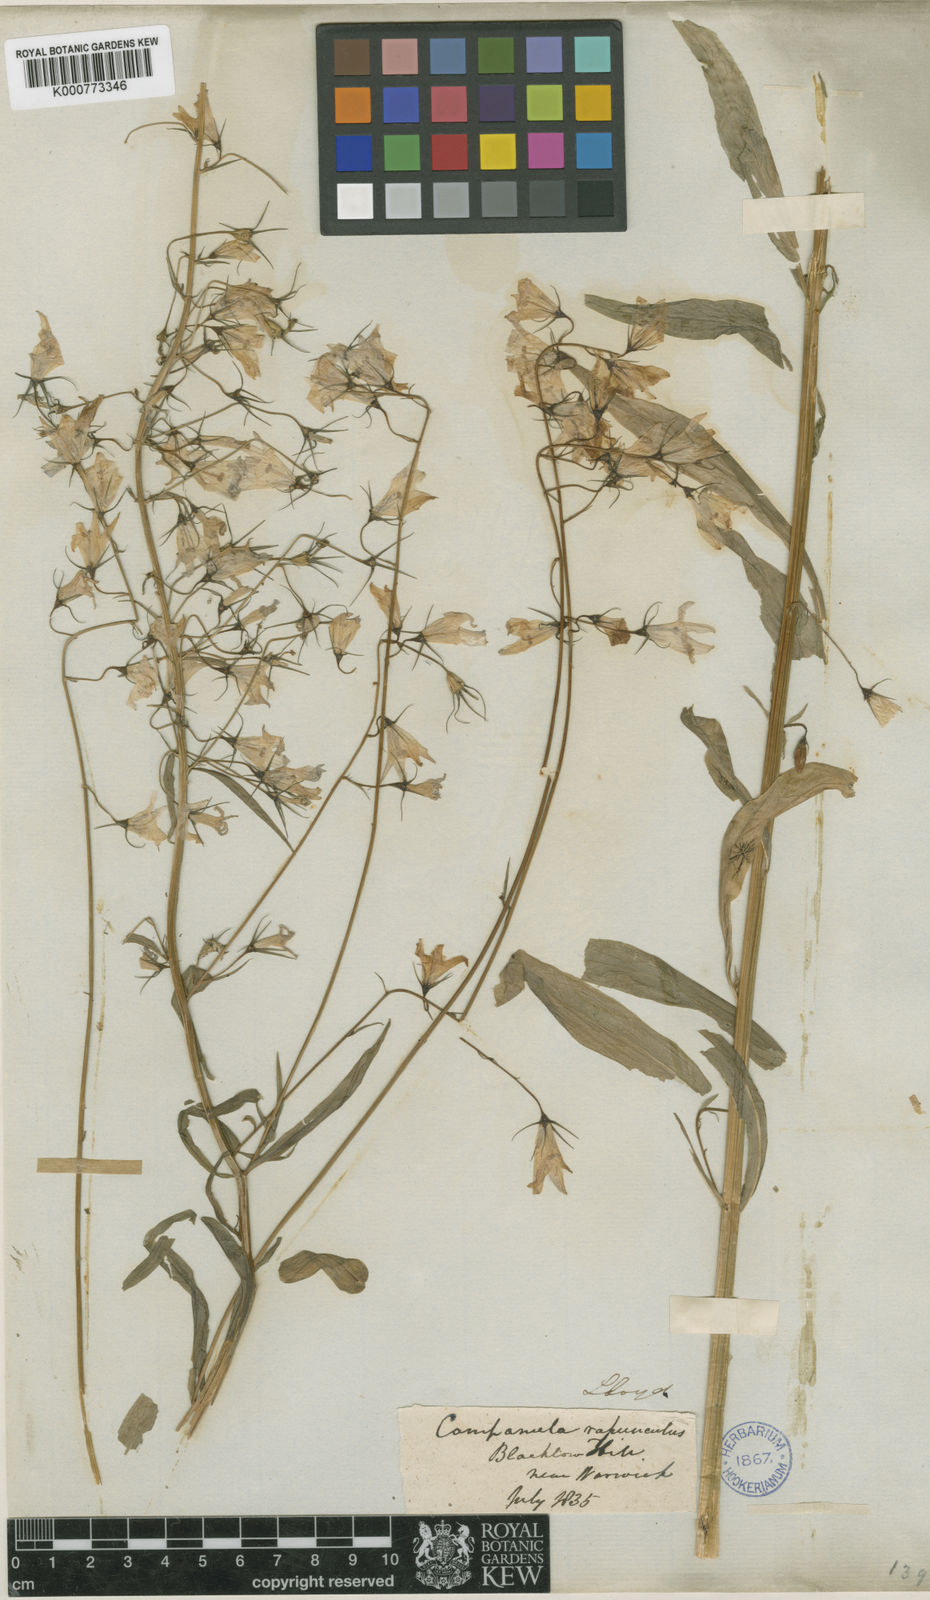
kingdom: Plantae
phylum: Tracheophyta
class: Magnoliopsida
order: Asterales
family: Campanulaceae
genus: Campanula
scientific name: Campanula patula
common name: Spreading bellflower
